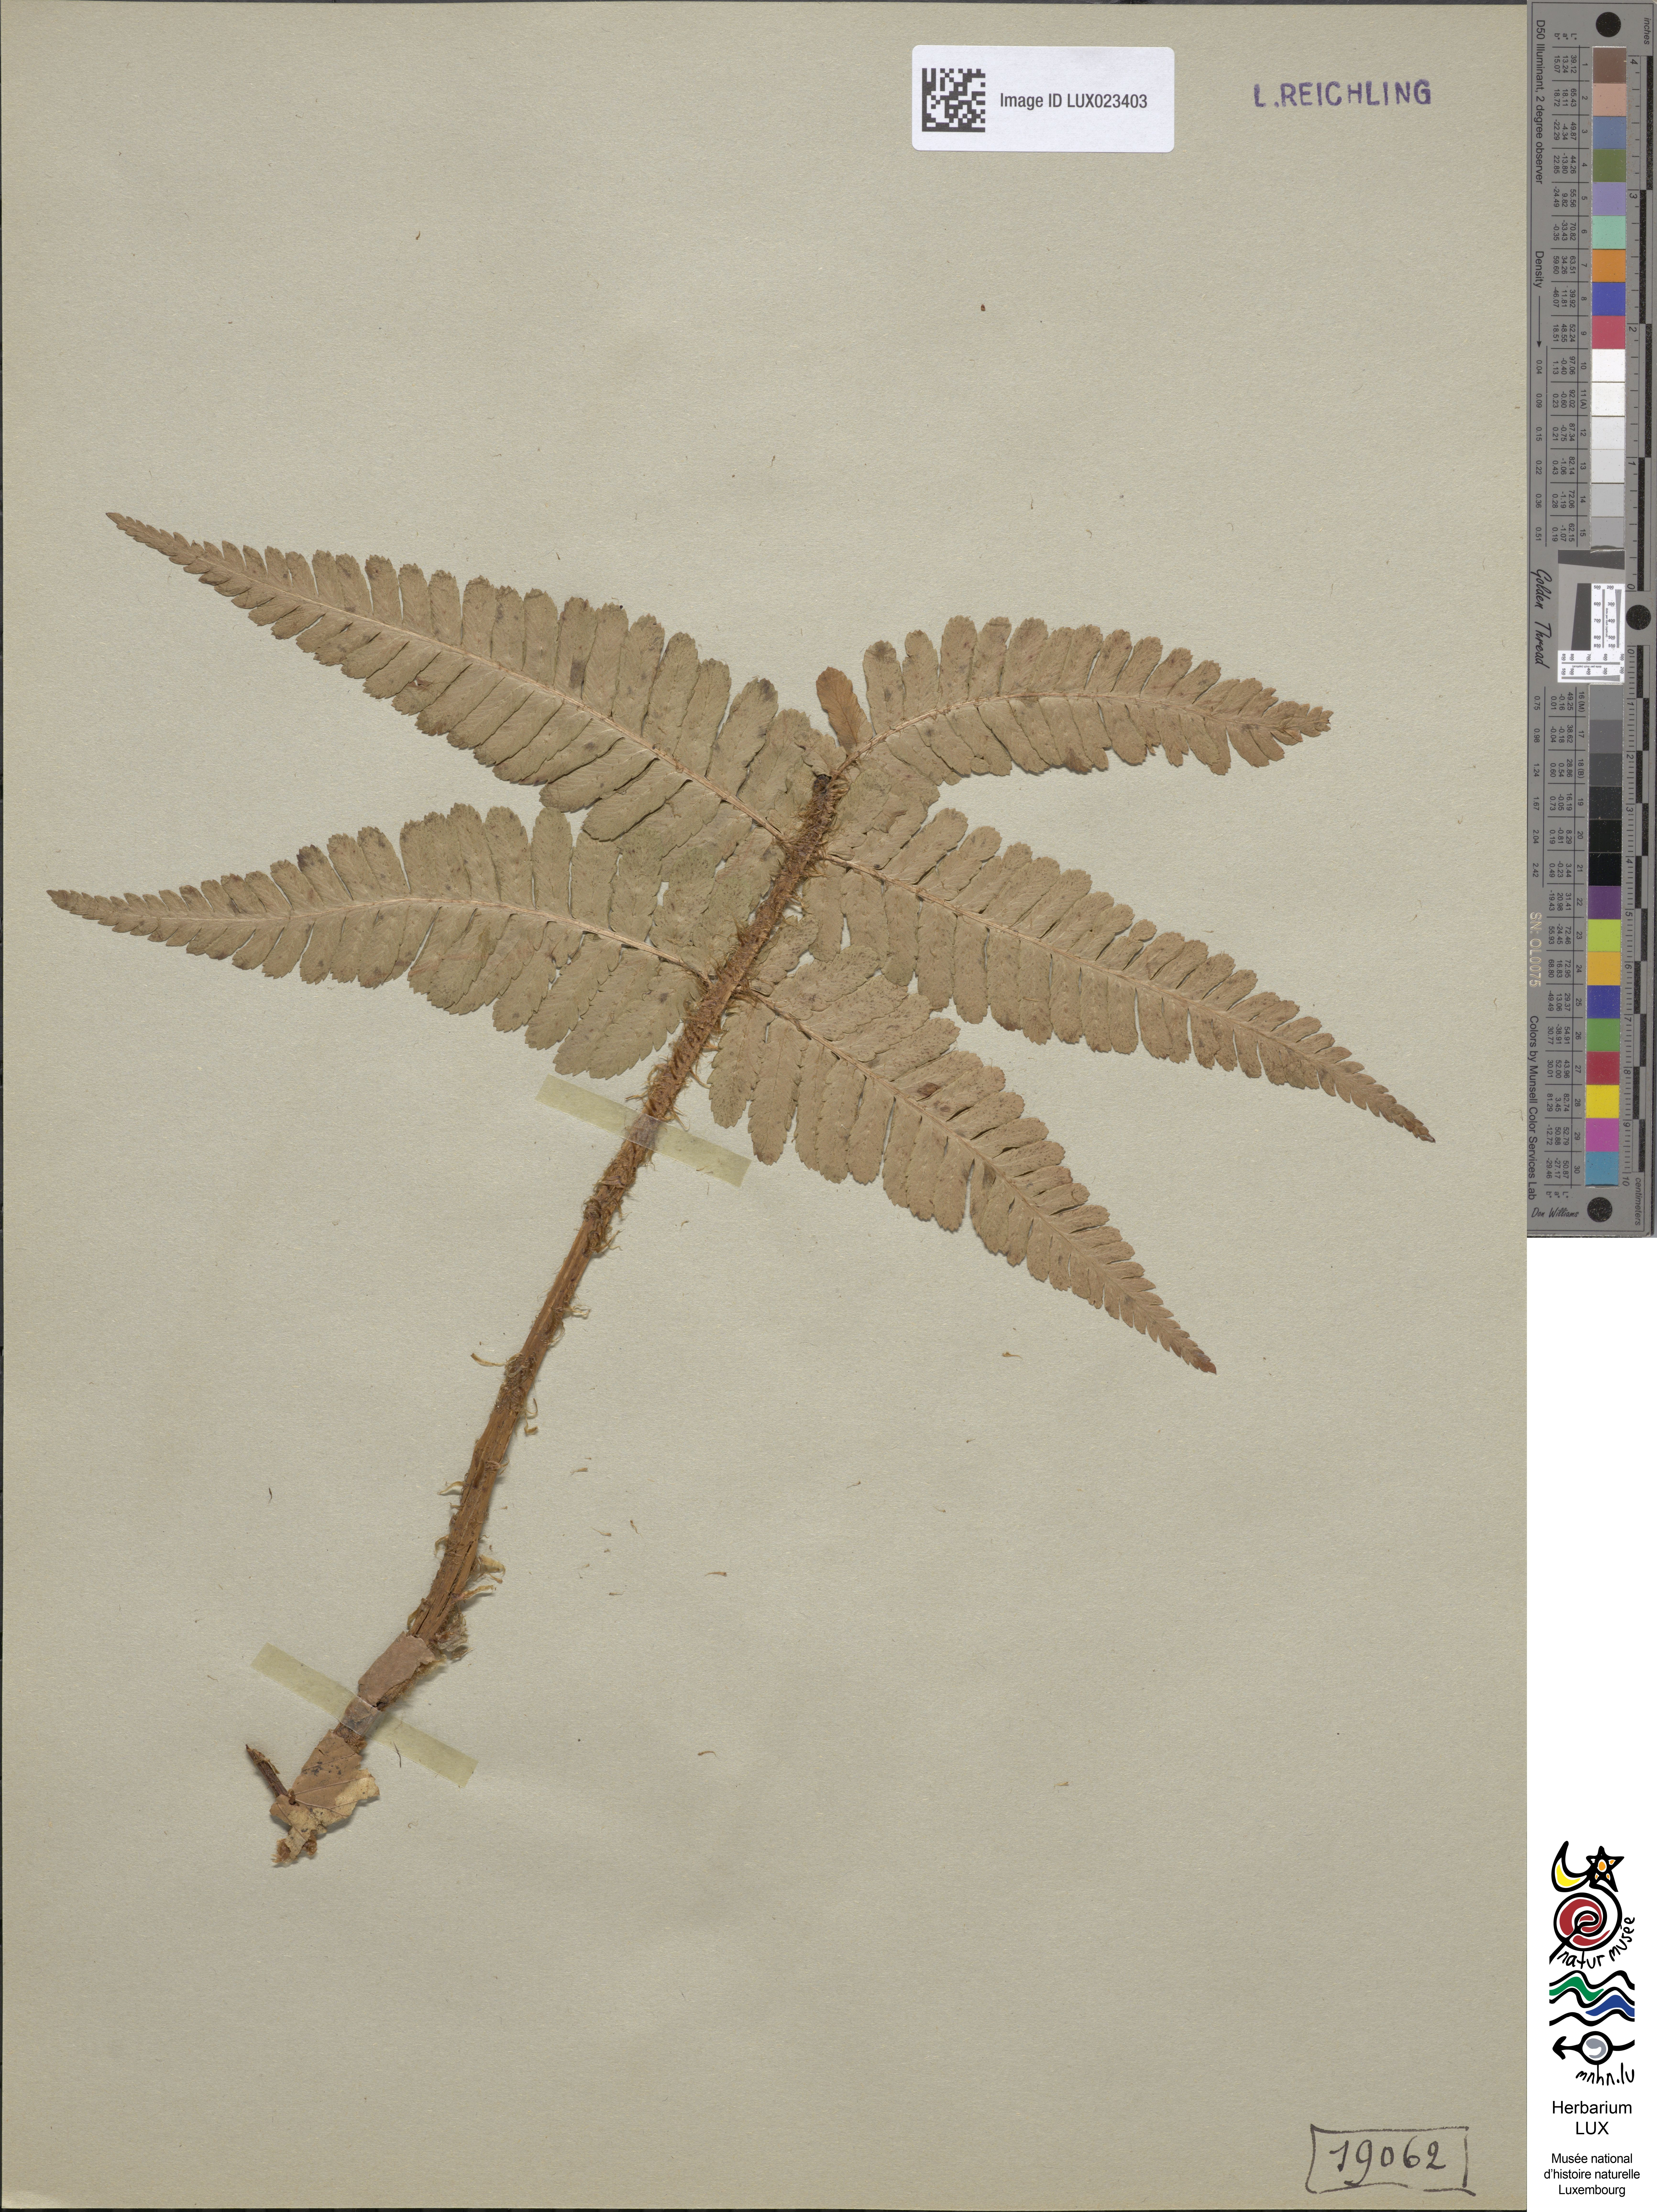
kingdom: Plantae
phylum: Tracheophyta
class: Polypodiopsida
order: Polypodiales
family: Dryopteridaceae
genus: Dryopteris
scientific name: Dryopteris
